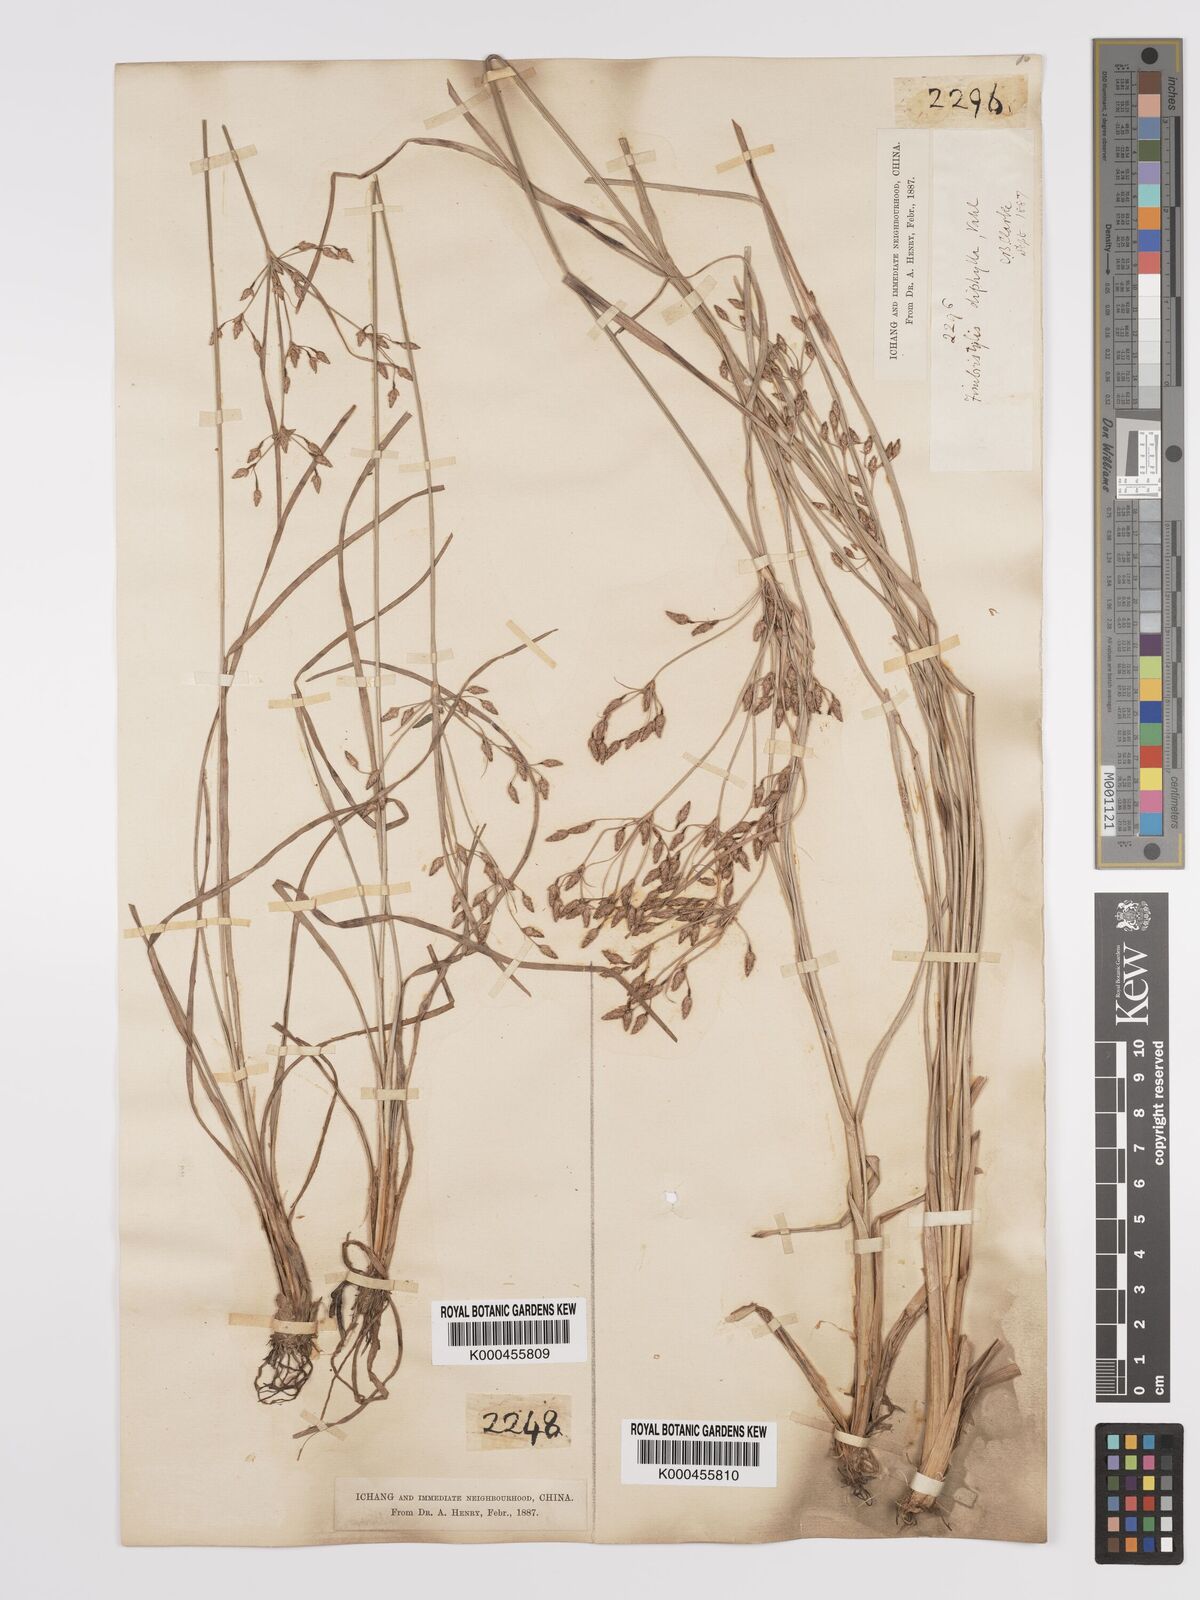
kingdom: Plantae
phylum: Tracheophyta
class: Liliopsida
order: Poales
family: Cyperaceae
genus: Fimbristylis
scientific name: Fimbristylis dichotoma
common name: Forked fimbry
